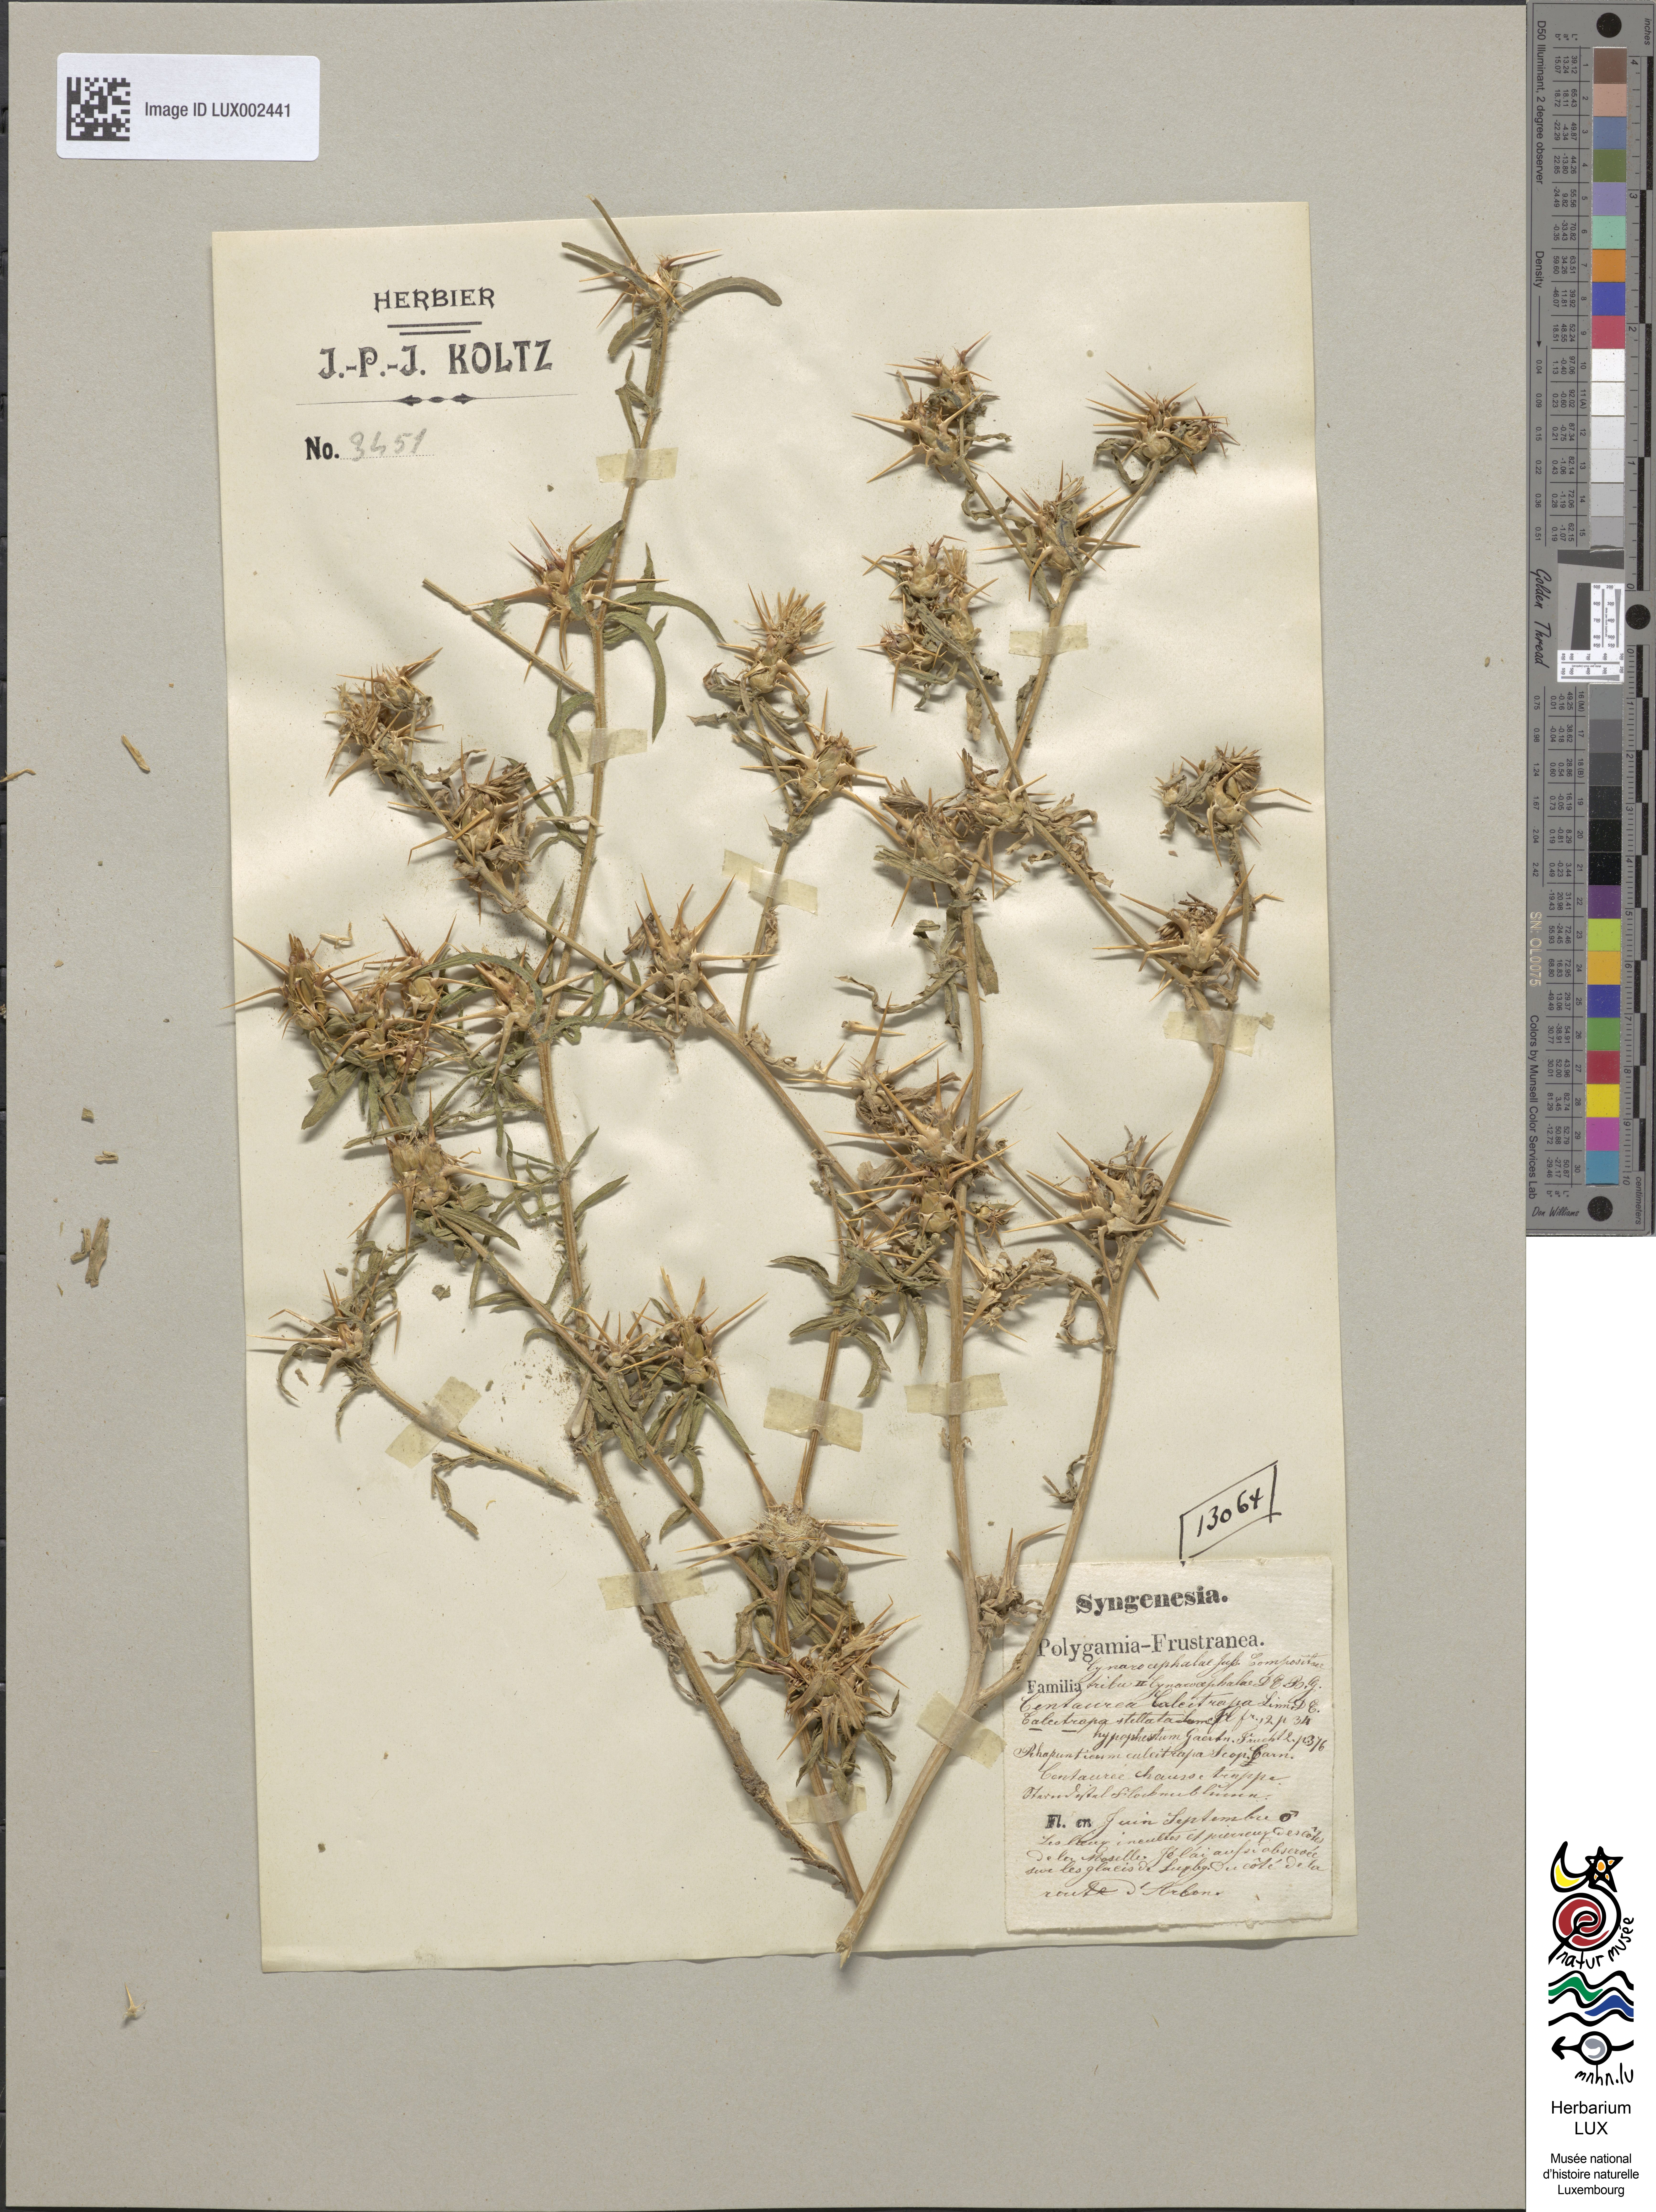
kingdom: Plantae
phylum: Tracheophyta
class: Magnoliopsida
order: Asterales
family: Asteraceae
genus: Centaurea
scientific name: Centaurea calcitrapa
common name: Red star-thistle
